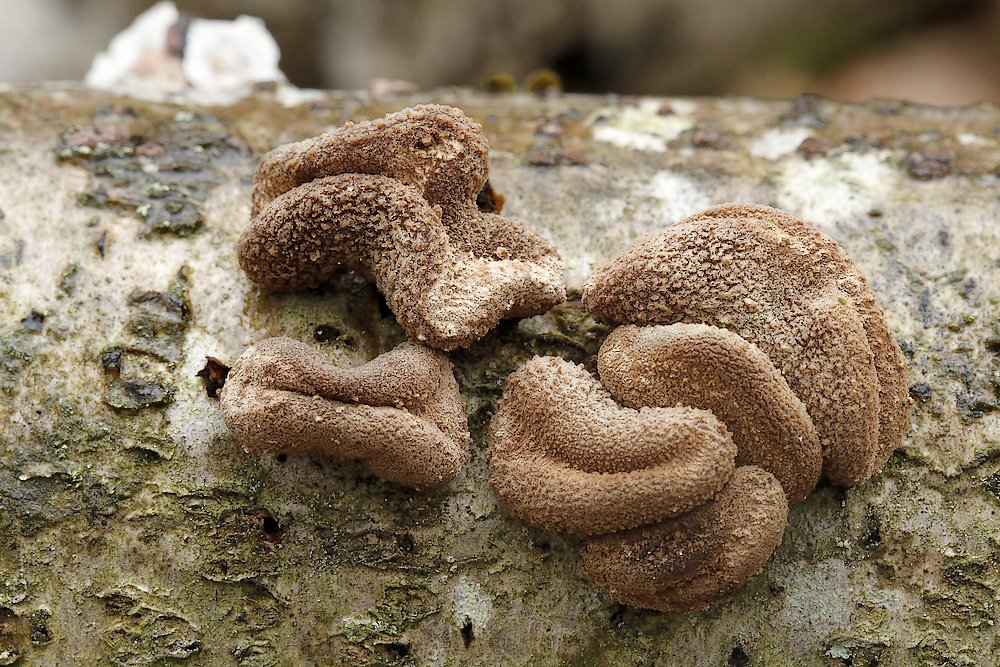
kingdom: Fungi
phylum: Ascomycota
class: Leotiomycetes
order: Helotiales
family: Cenangiaceae
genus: Encoelia
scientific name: Encoelia furfuracea
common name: hassel-læderskive
